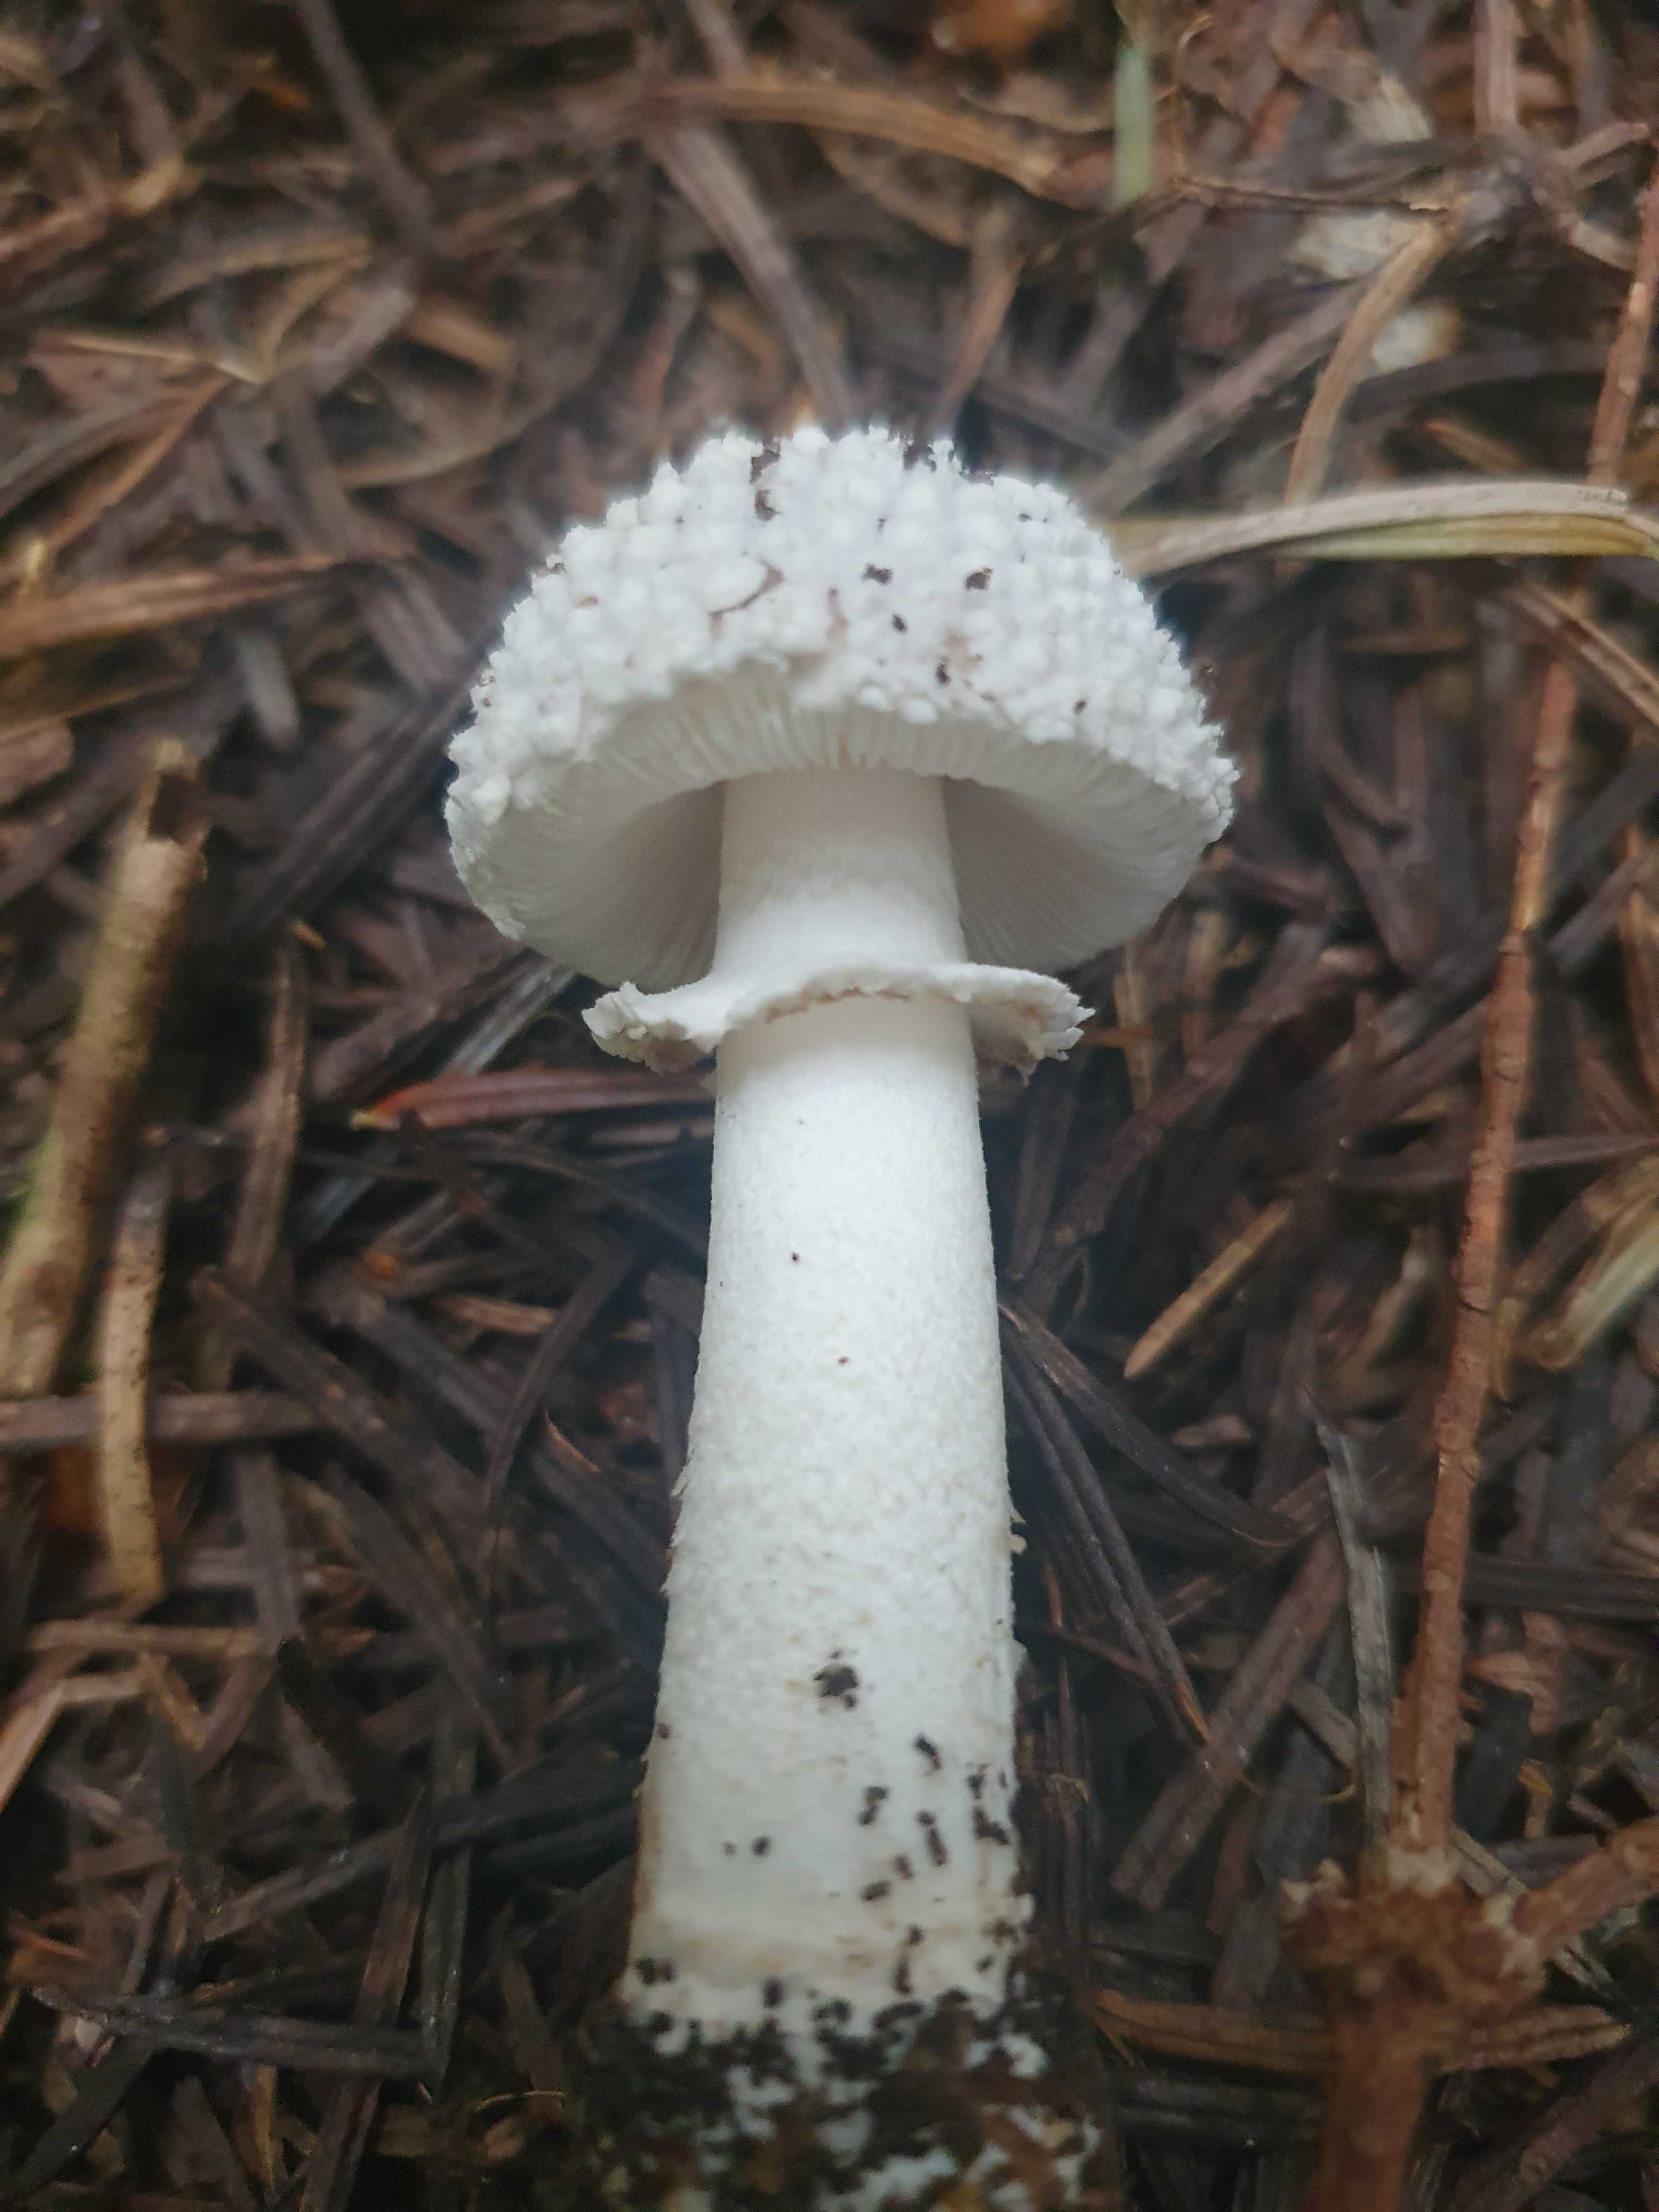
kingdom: Fungi
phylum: Basidiomycota
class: Agaricomycetes
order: Agaricales
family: Amanitaceae
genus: Amanita
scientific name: Amanita
